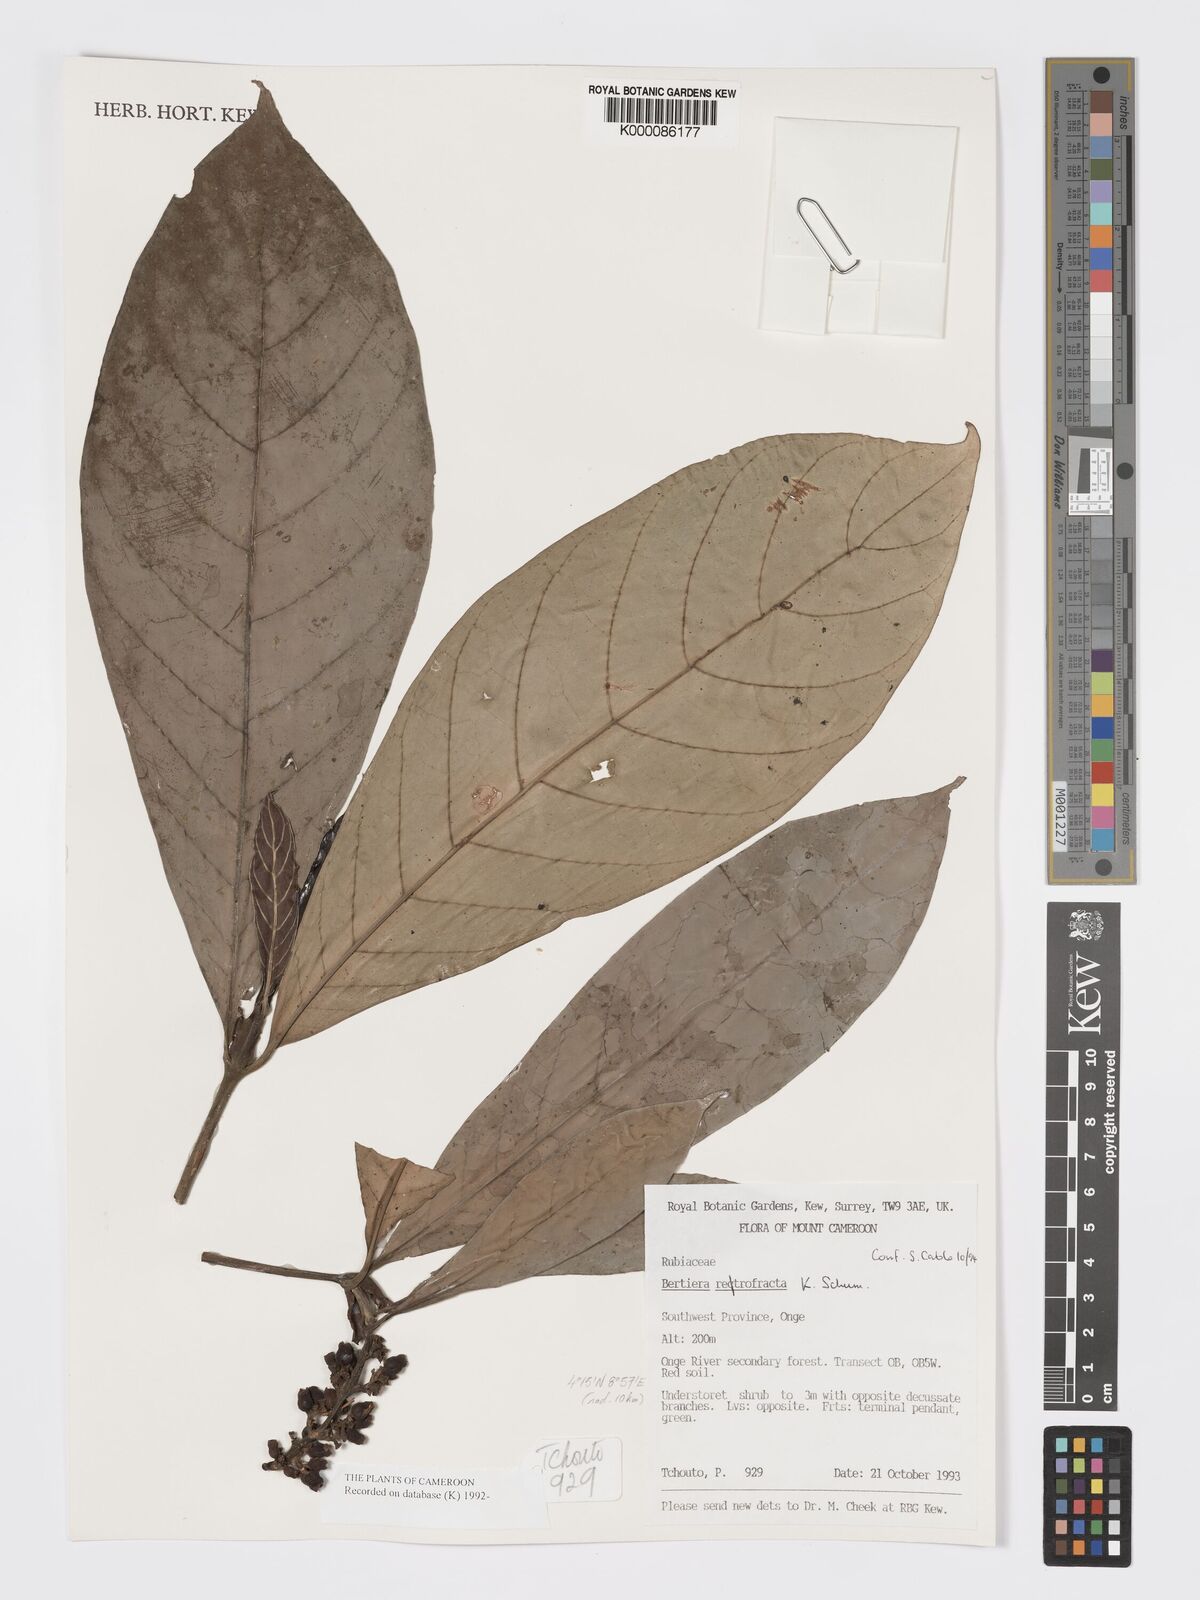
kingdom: Plantae
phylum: Tracheophyta
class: Magnoliopsida
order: Gentianales
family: Rubiaceae
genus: Bertiera
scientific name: Bertiera retrofracta
